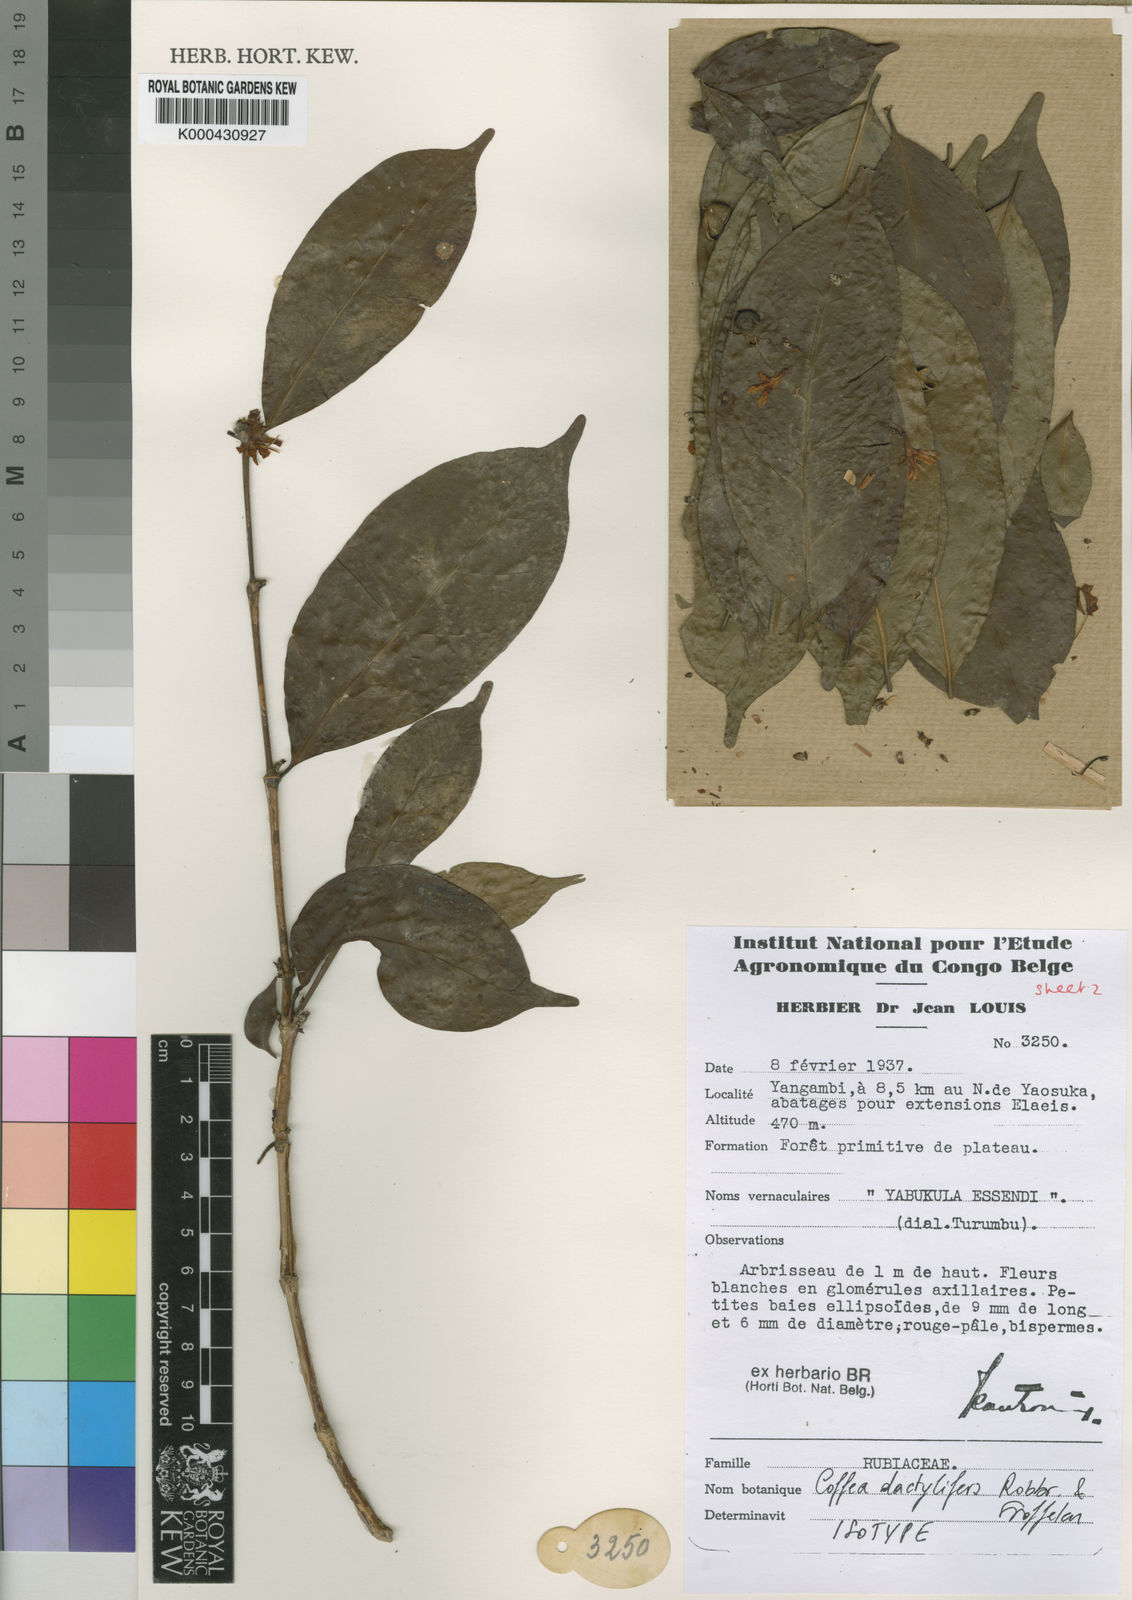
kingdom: Plantae
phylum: Tracheophyta
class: Magnoliopsida
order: Gentianales
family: Rubiaceae
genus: Coffea
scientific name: Coffea dactylifera
